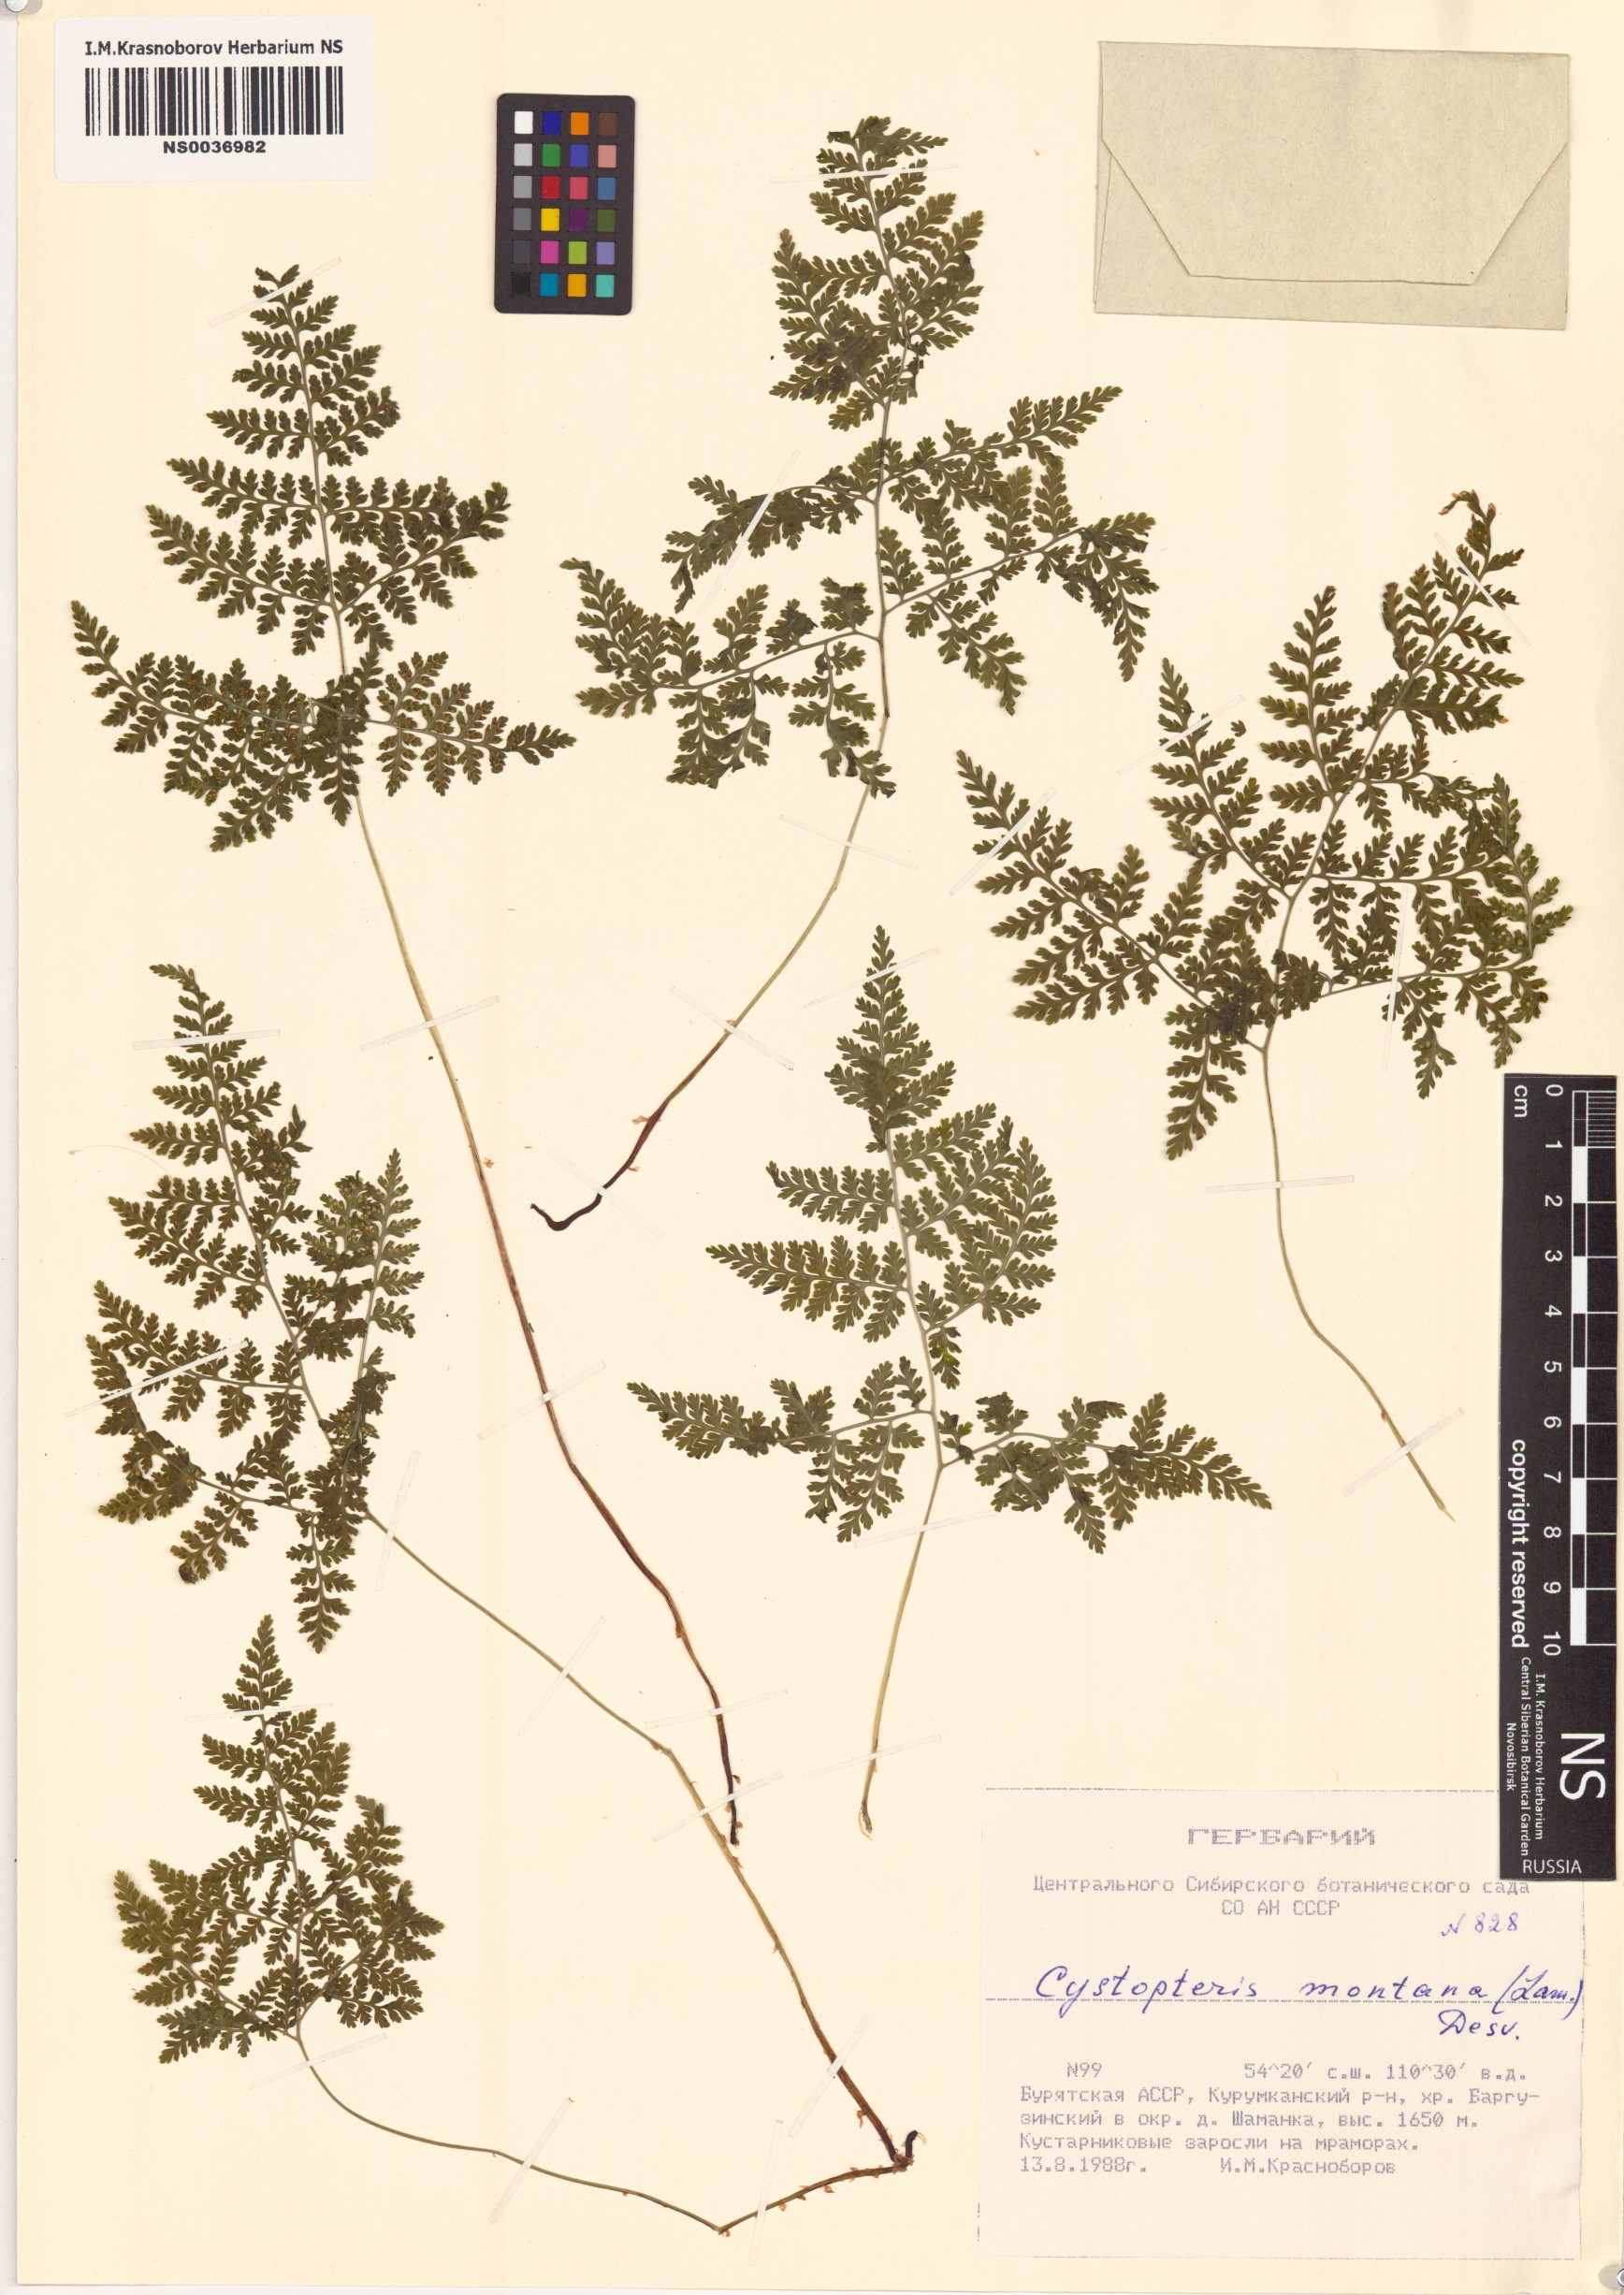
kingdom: Plantae
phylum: Tracheophyta
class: Polypodiopsida
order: Polypodiales
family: Cystopteridaceae
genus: Cystopteris
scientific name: Cystopteris montana
